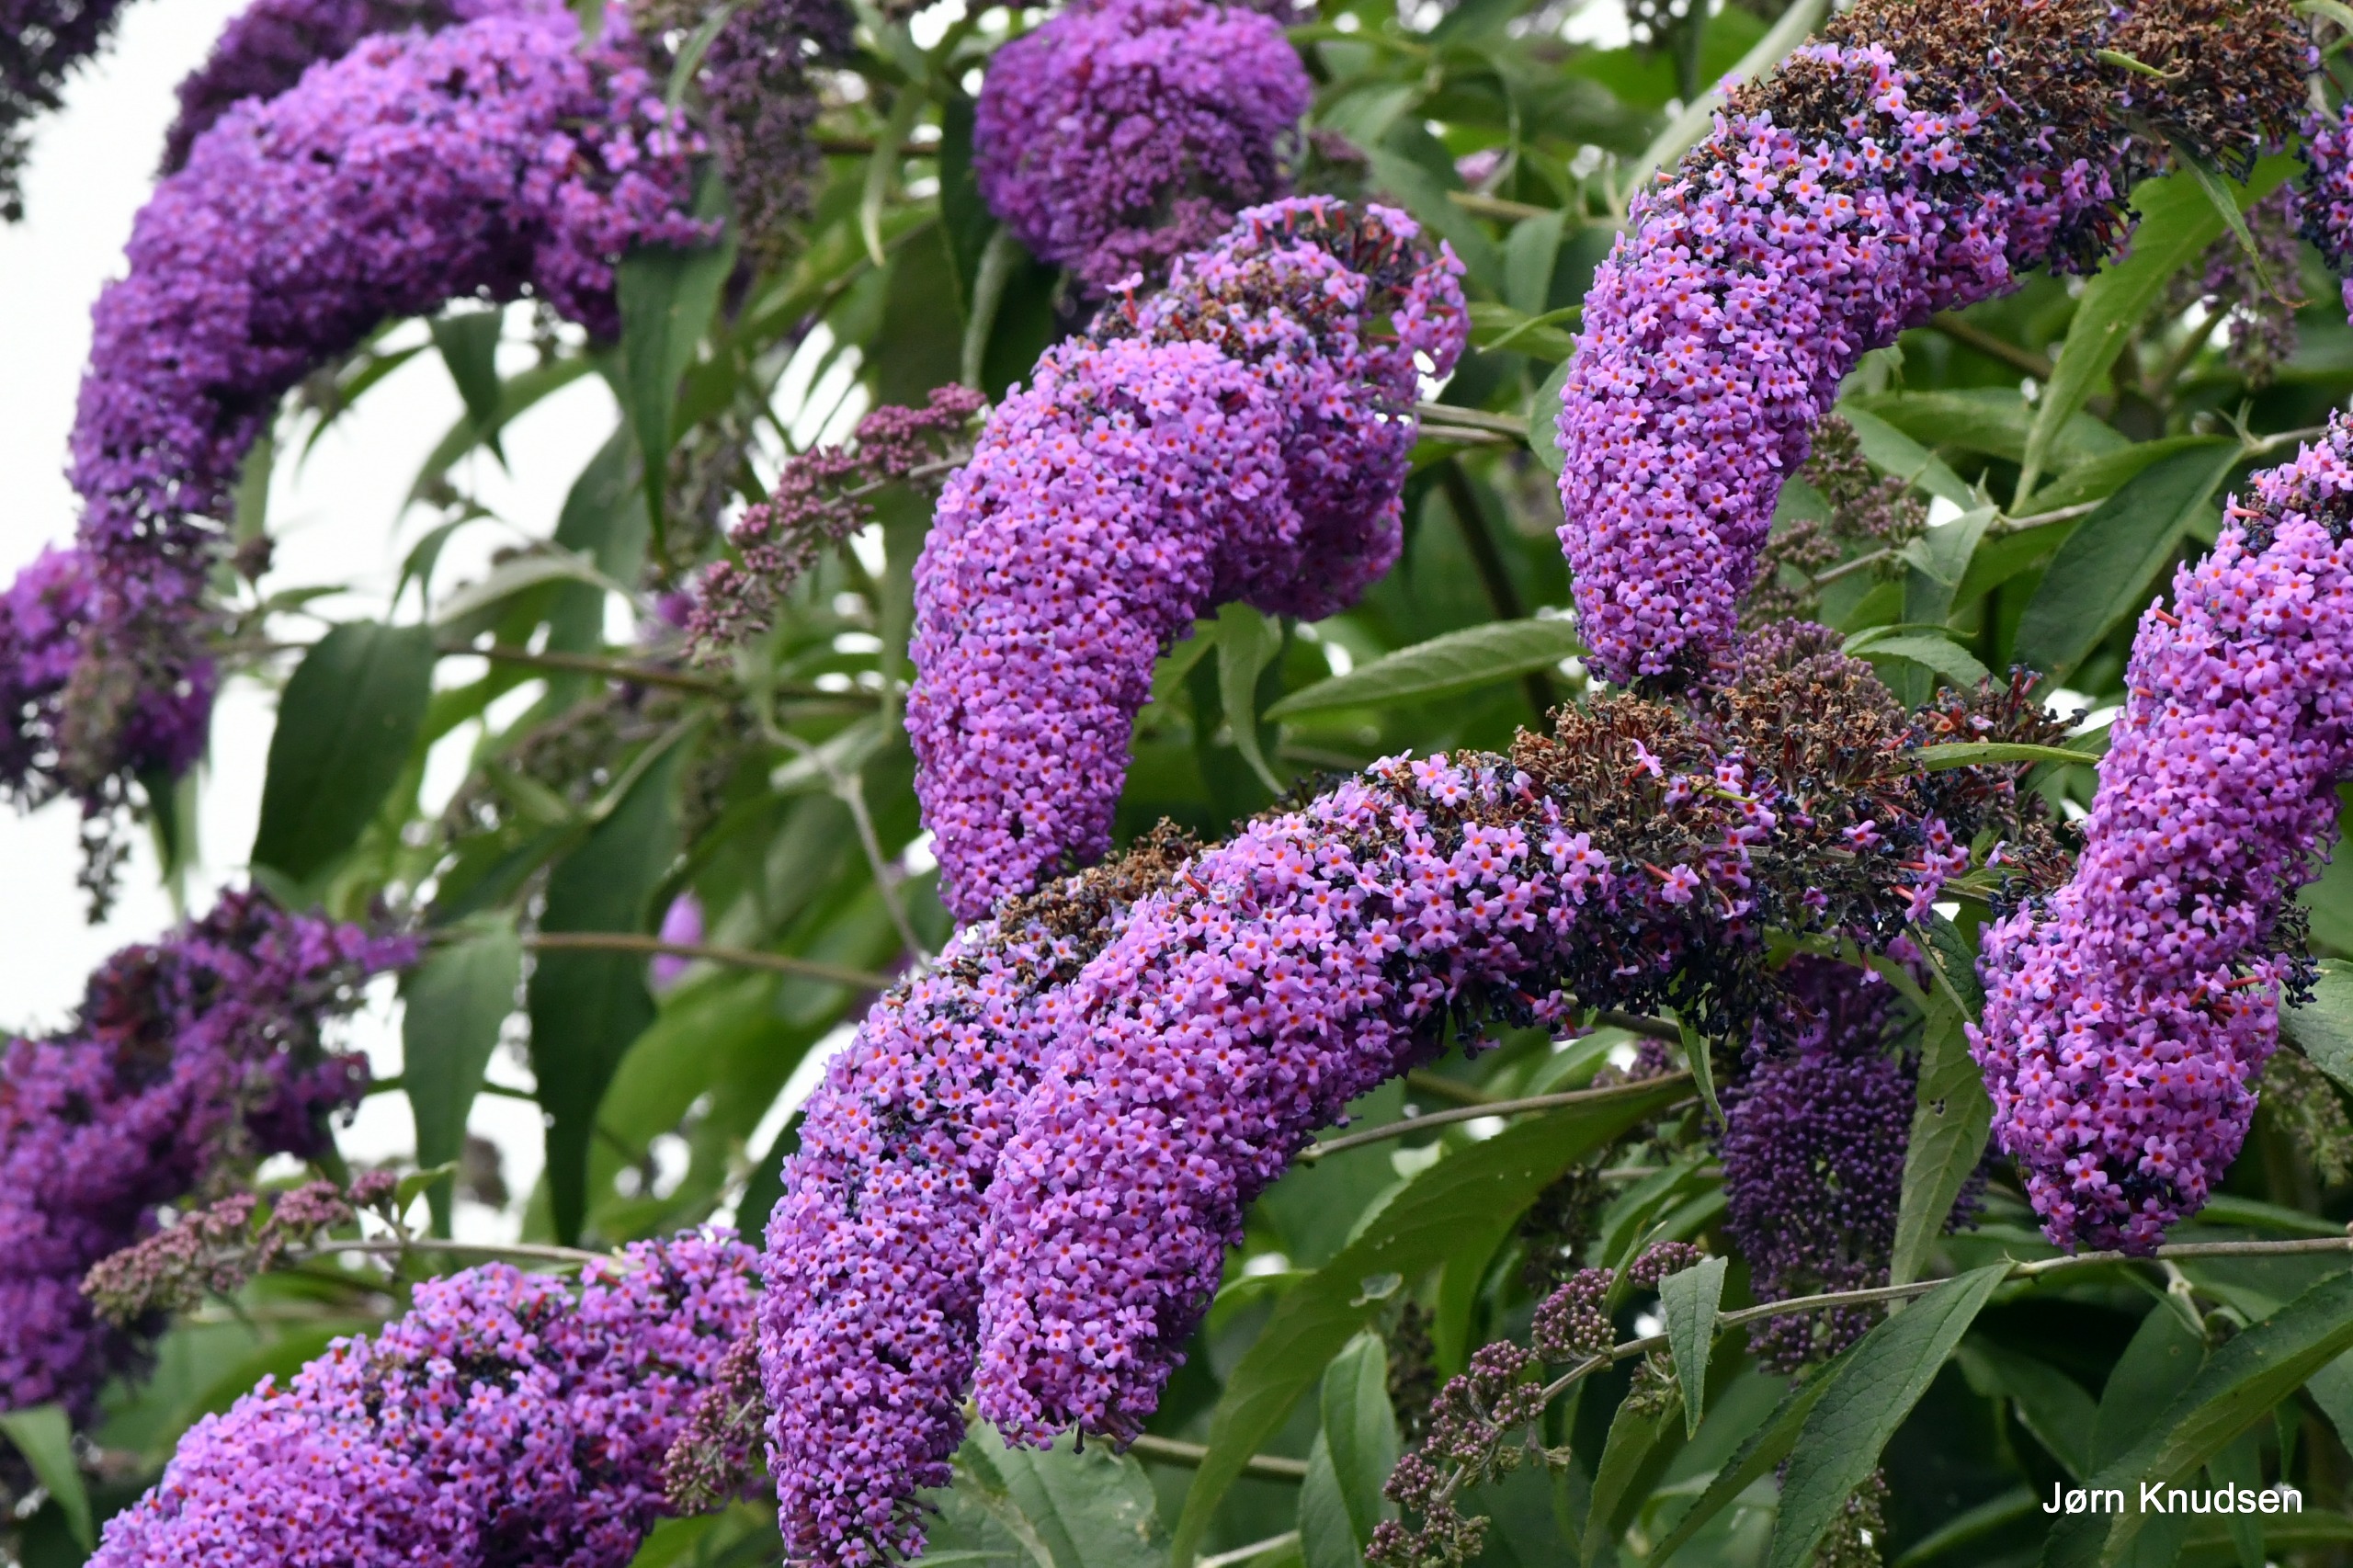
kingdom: Plantae
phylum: Tracheophyta
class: Magnoliopsida
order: Lamiales
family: Scrophulariaceae
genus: Buddleja
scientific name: Buddleja davidii
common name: Sommerfuglebusk
